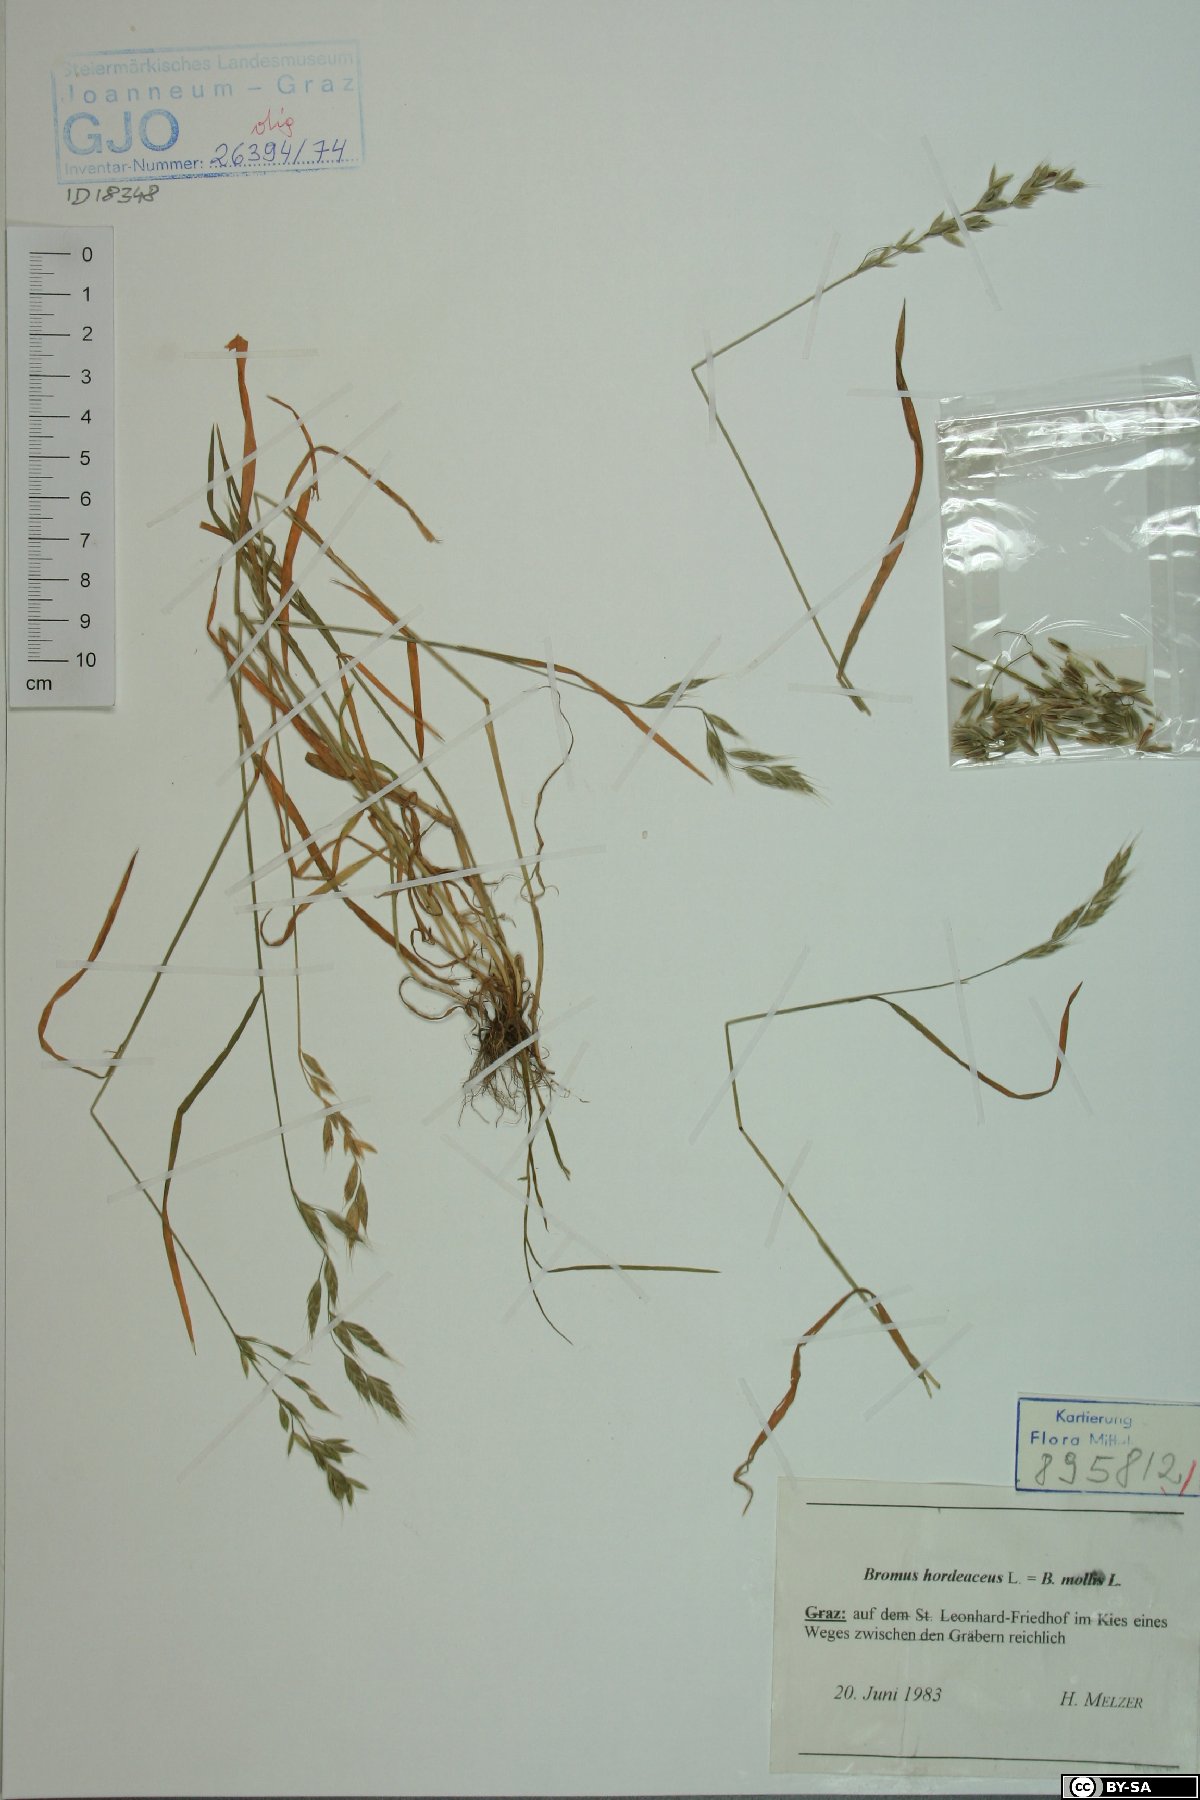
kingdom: Plantae
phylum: Tracheophyta
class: Liliopsida
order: Poales
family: Poaceae
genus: Bromus
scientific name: Bromus hordeaceus
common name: Soft brome
